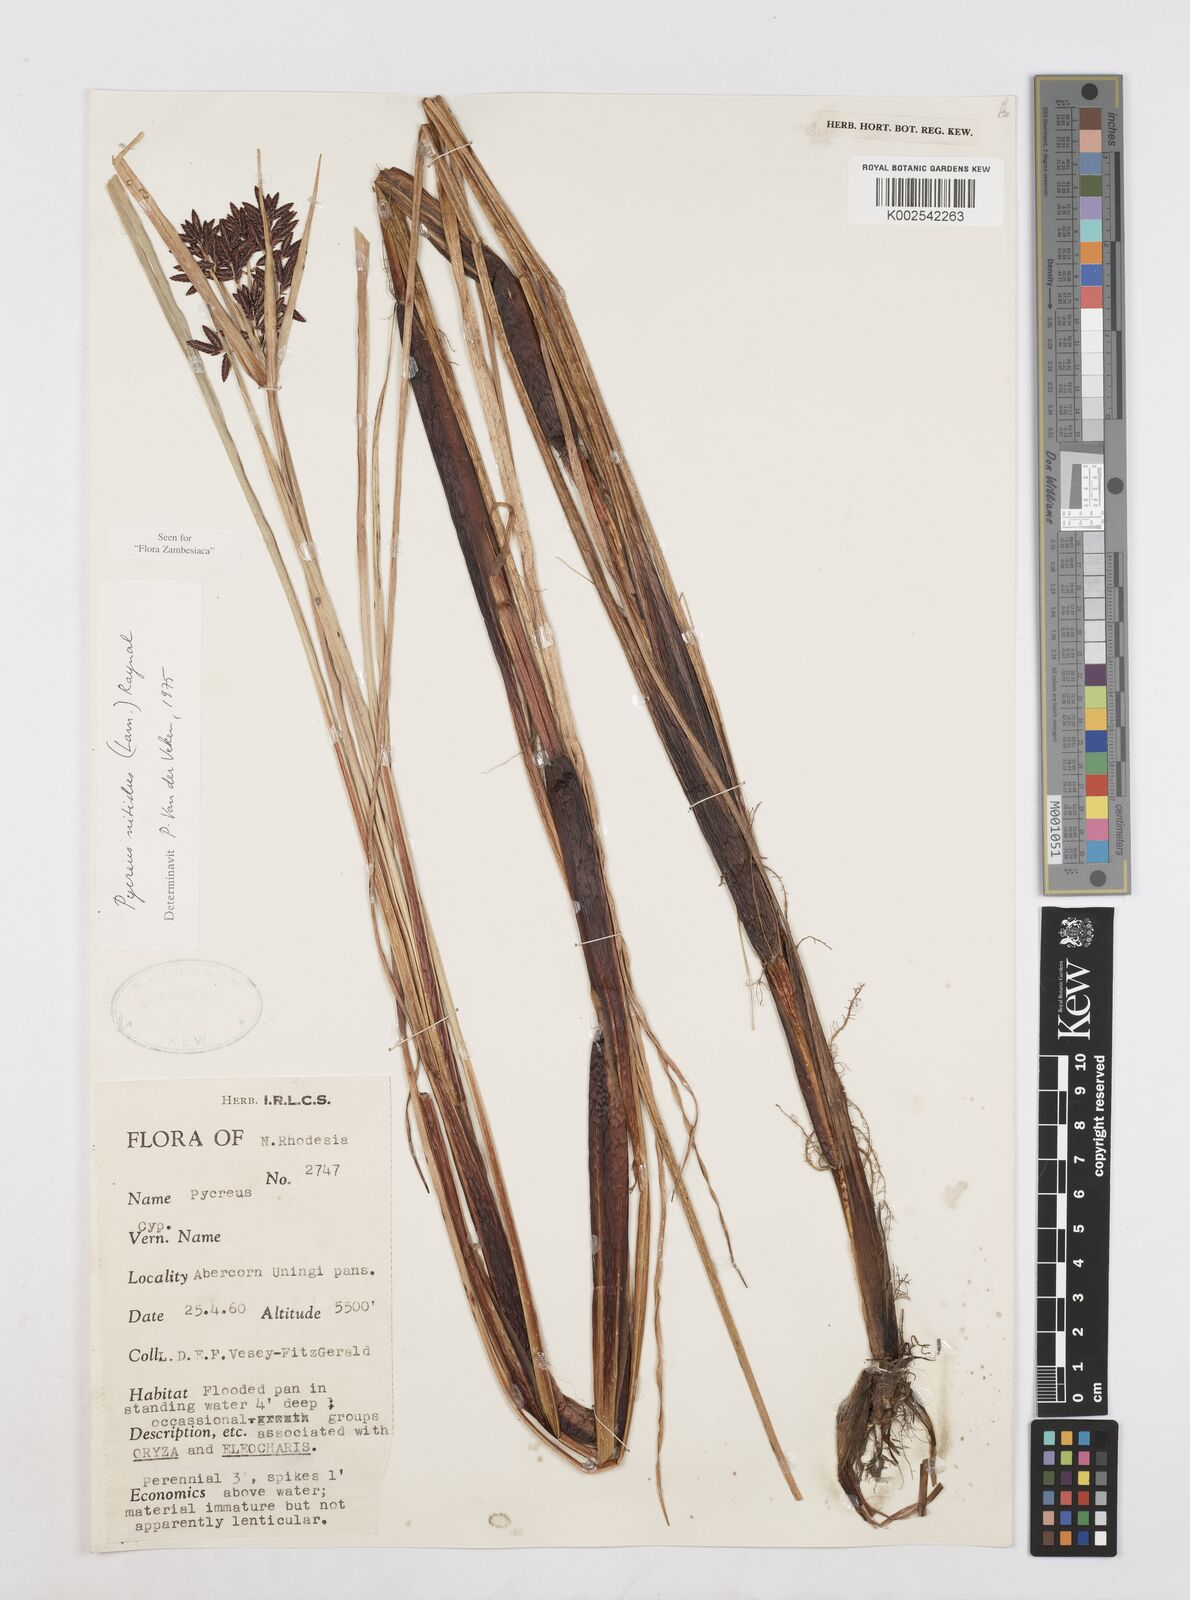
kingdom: Plantae
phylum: Tracheophyta
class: Liliopsida
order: Poales
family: Cyperaceae
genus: Cyperus
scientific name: Cyperus nitidus
